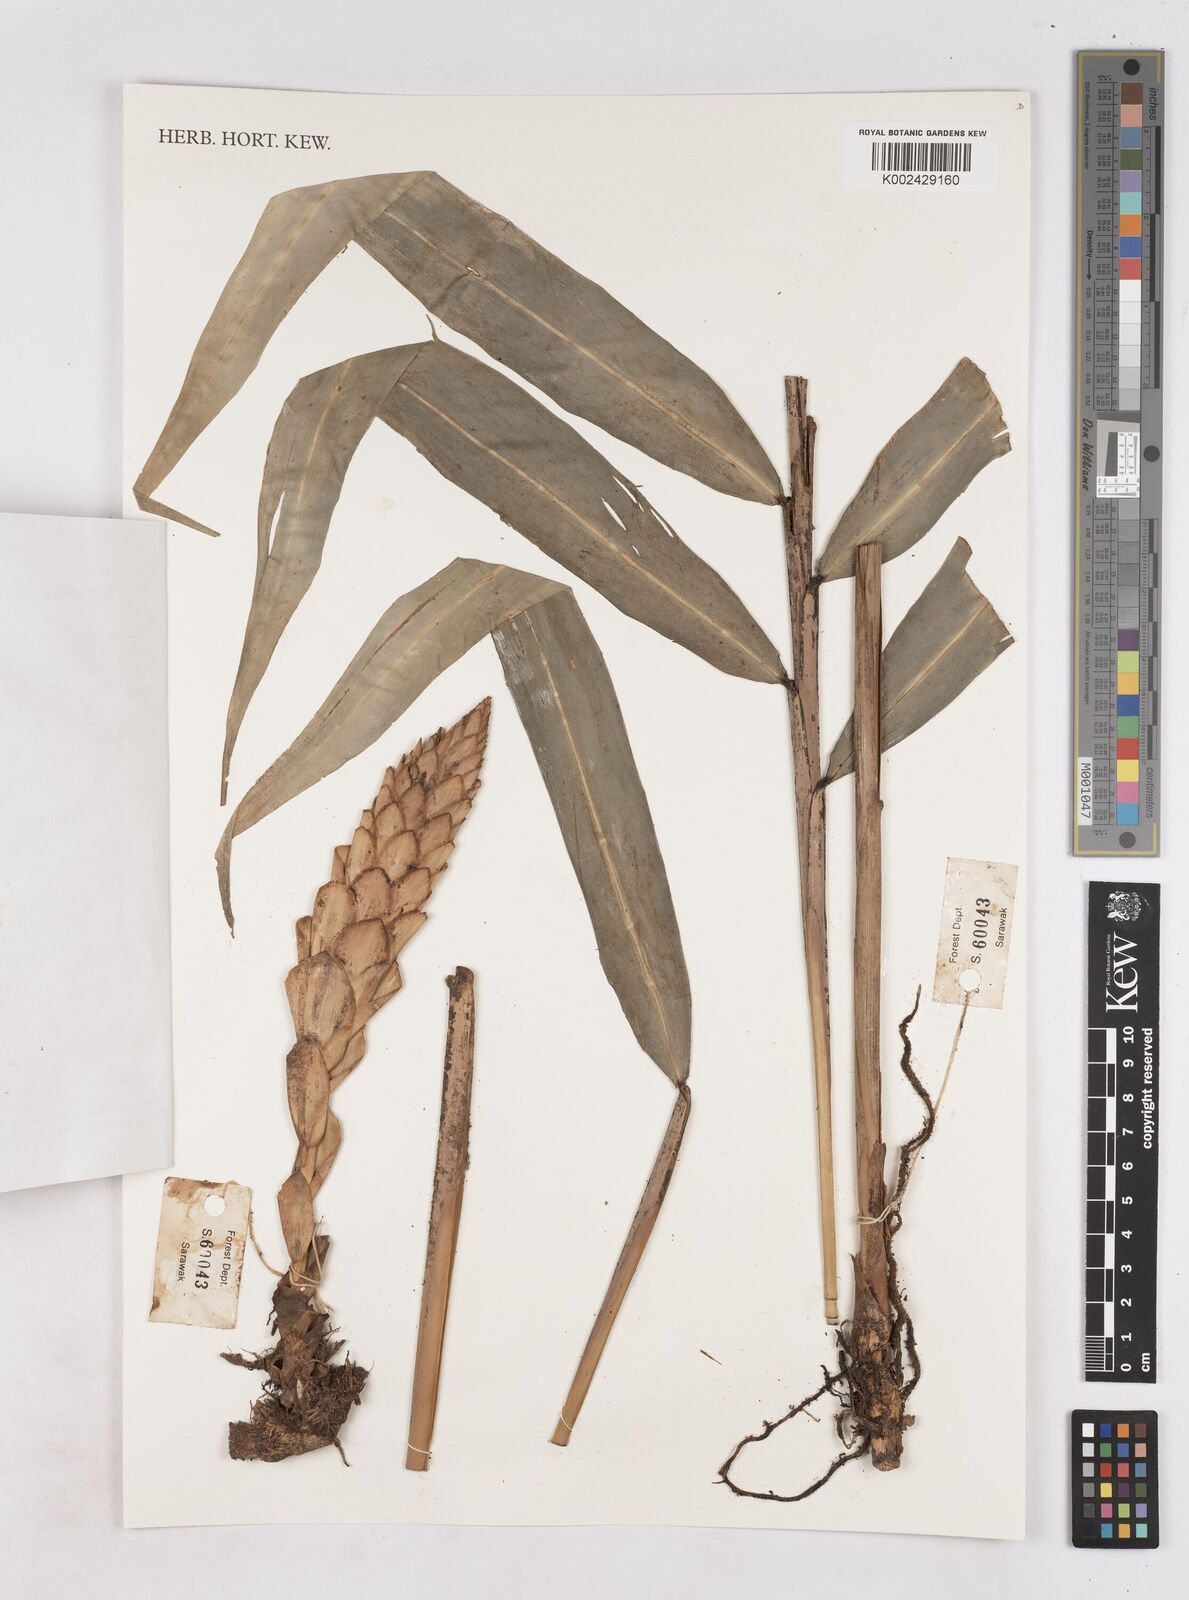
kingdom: Plantae
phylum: Tracheophyta
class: Liliopsida
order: Zingiberales
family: Zingiberaceae
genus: Zingiber
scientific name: Zingiber
